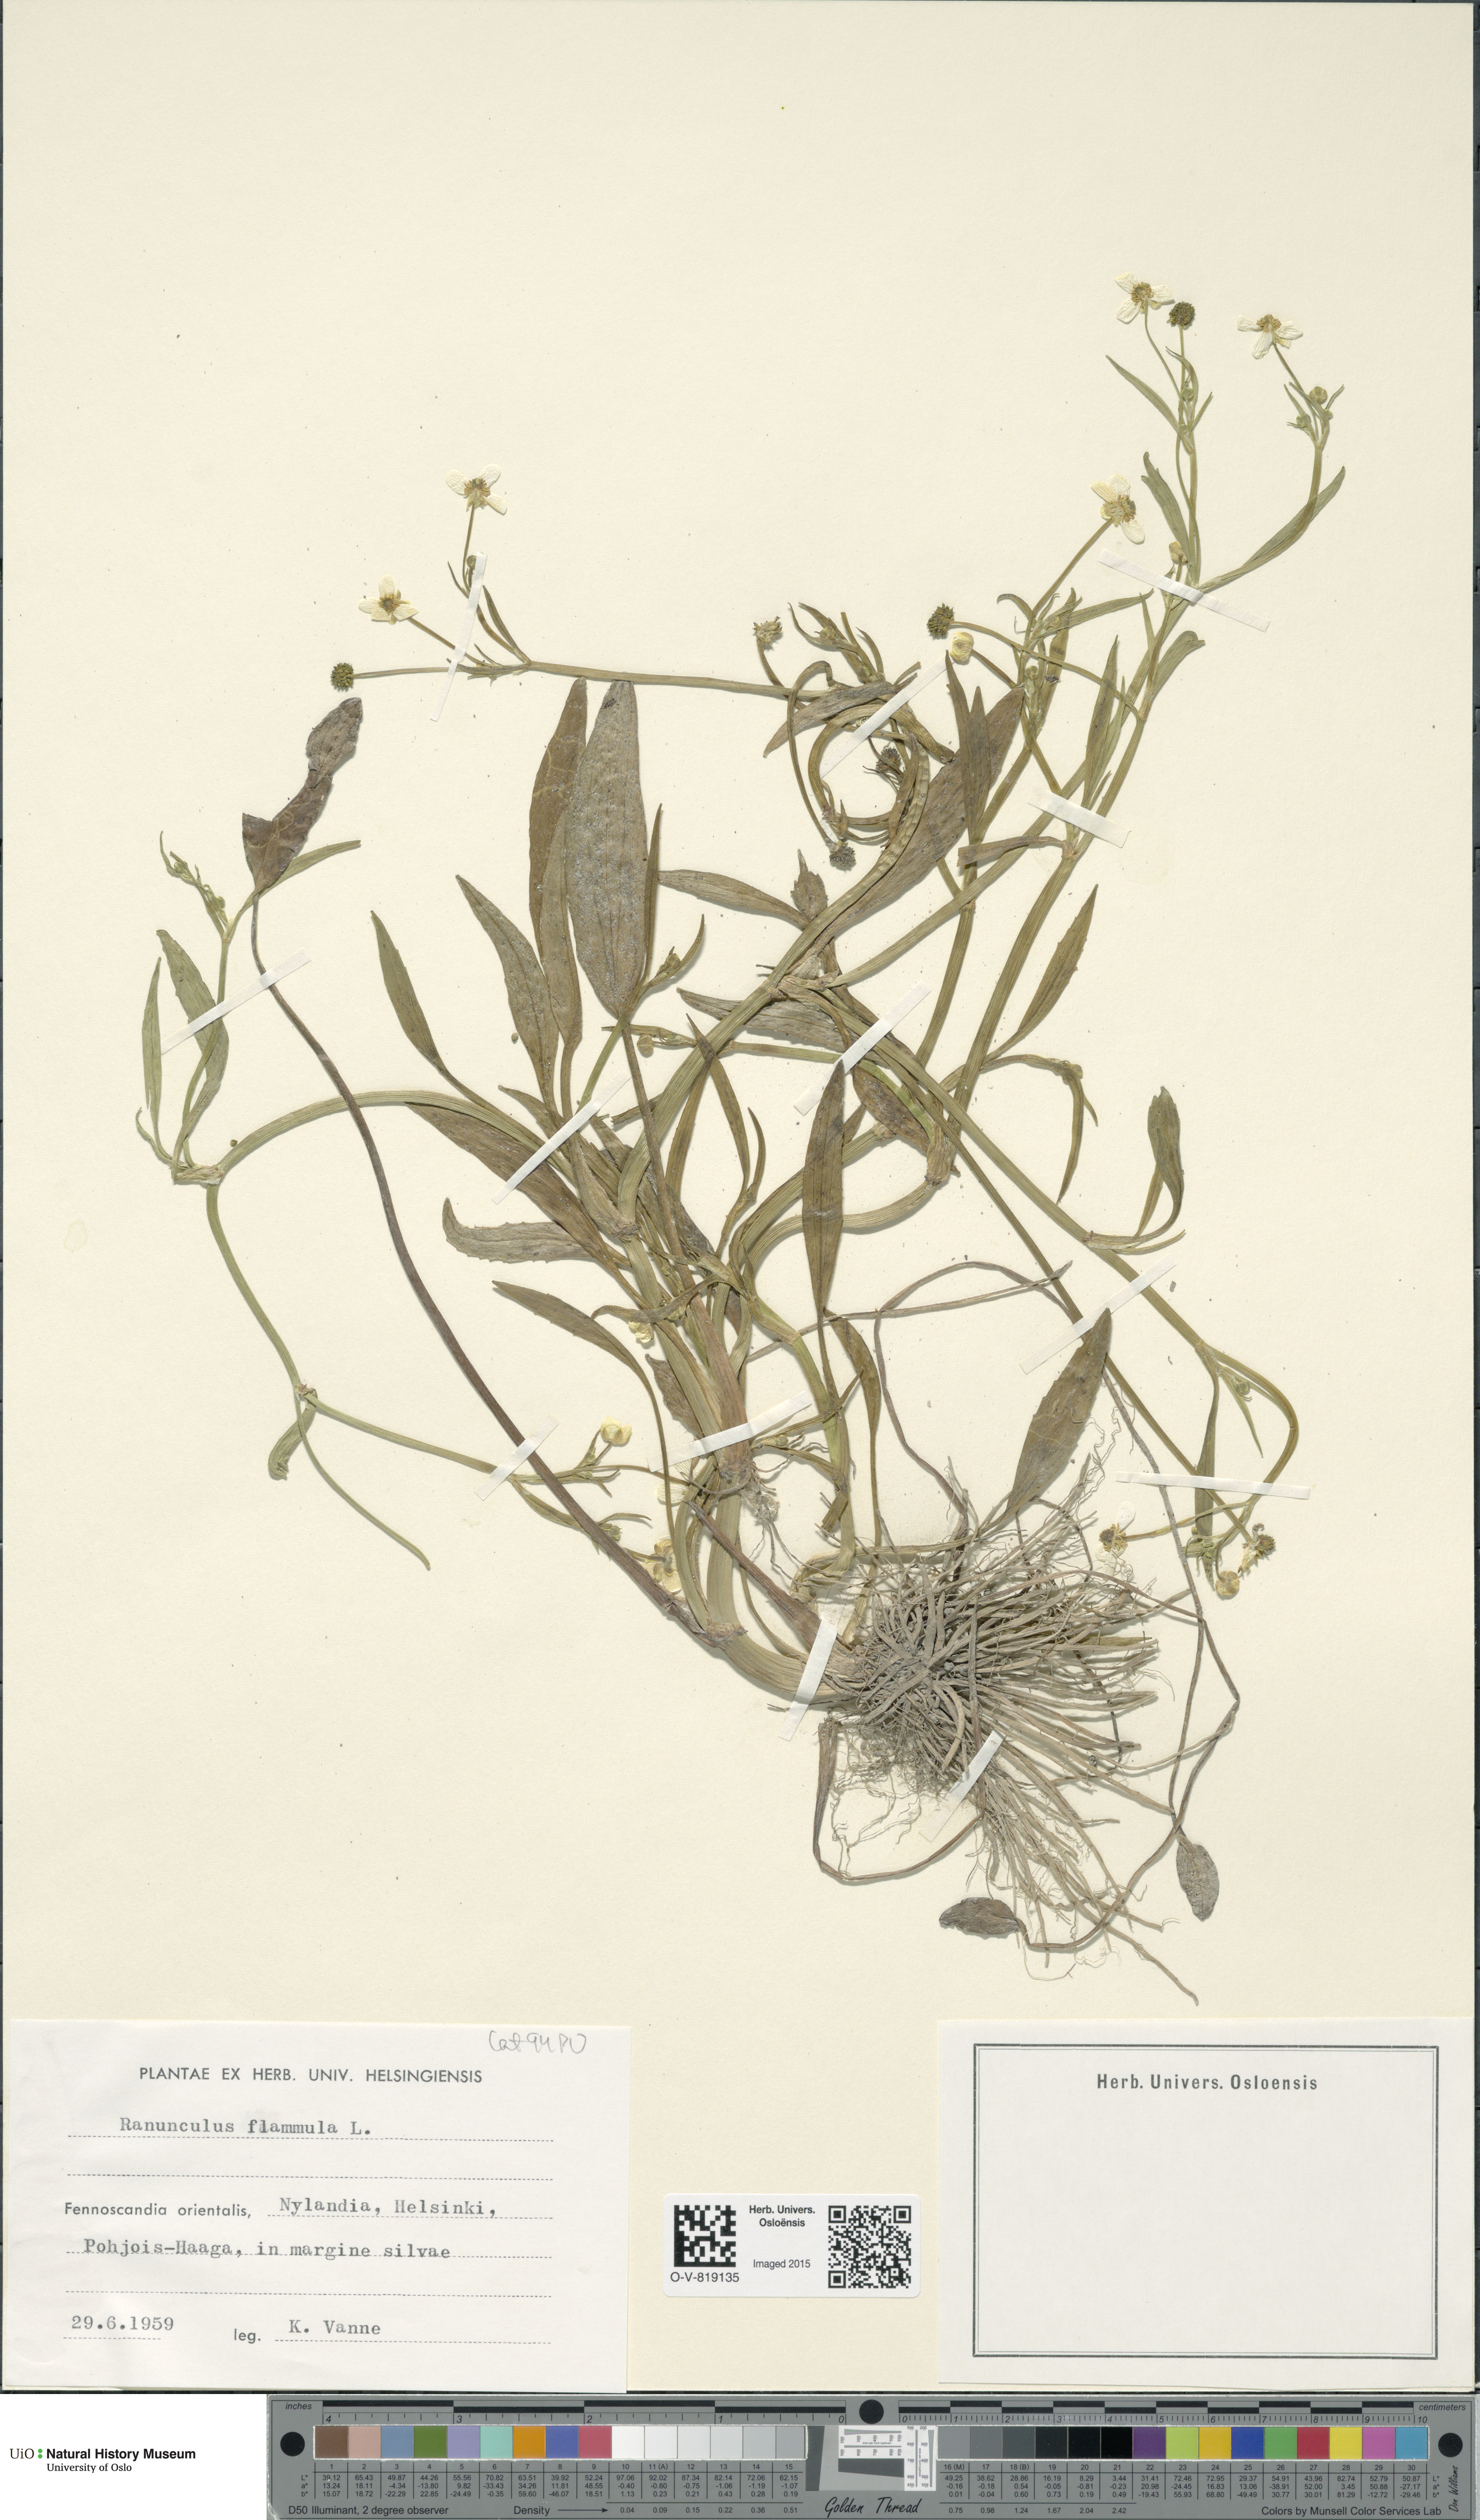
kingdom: Plantae
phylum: Tracheophyta
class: Magnoliopsida
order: Ranunculales
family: Ranunculaceae
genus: Ranunculus
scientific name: Ranunculus flammula
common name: Lesser spearwort
